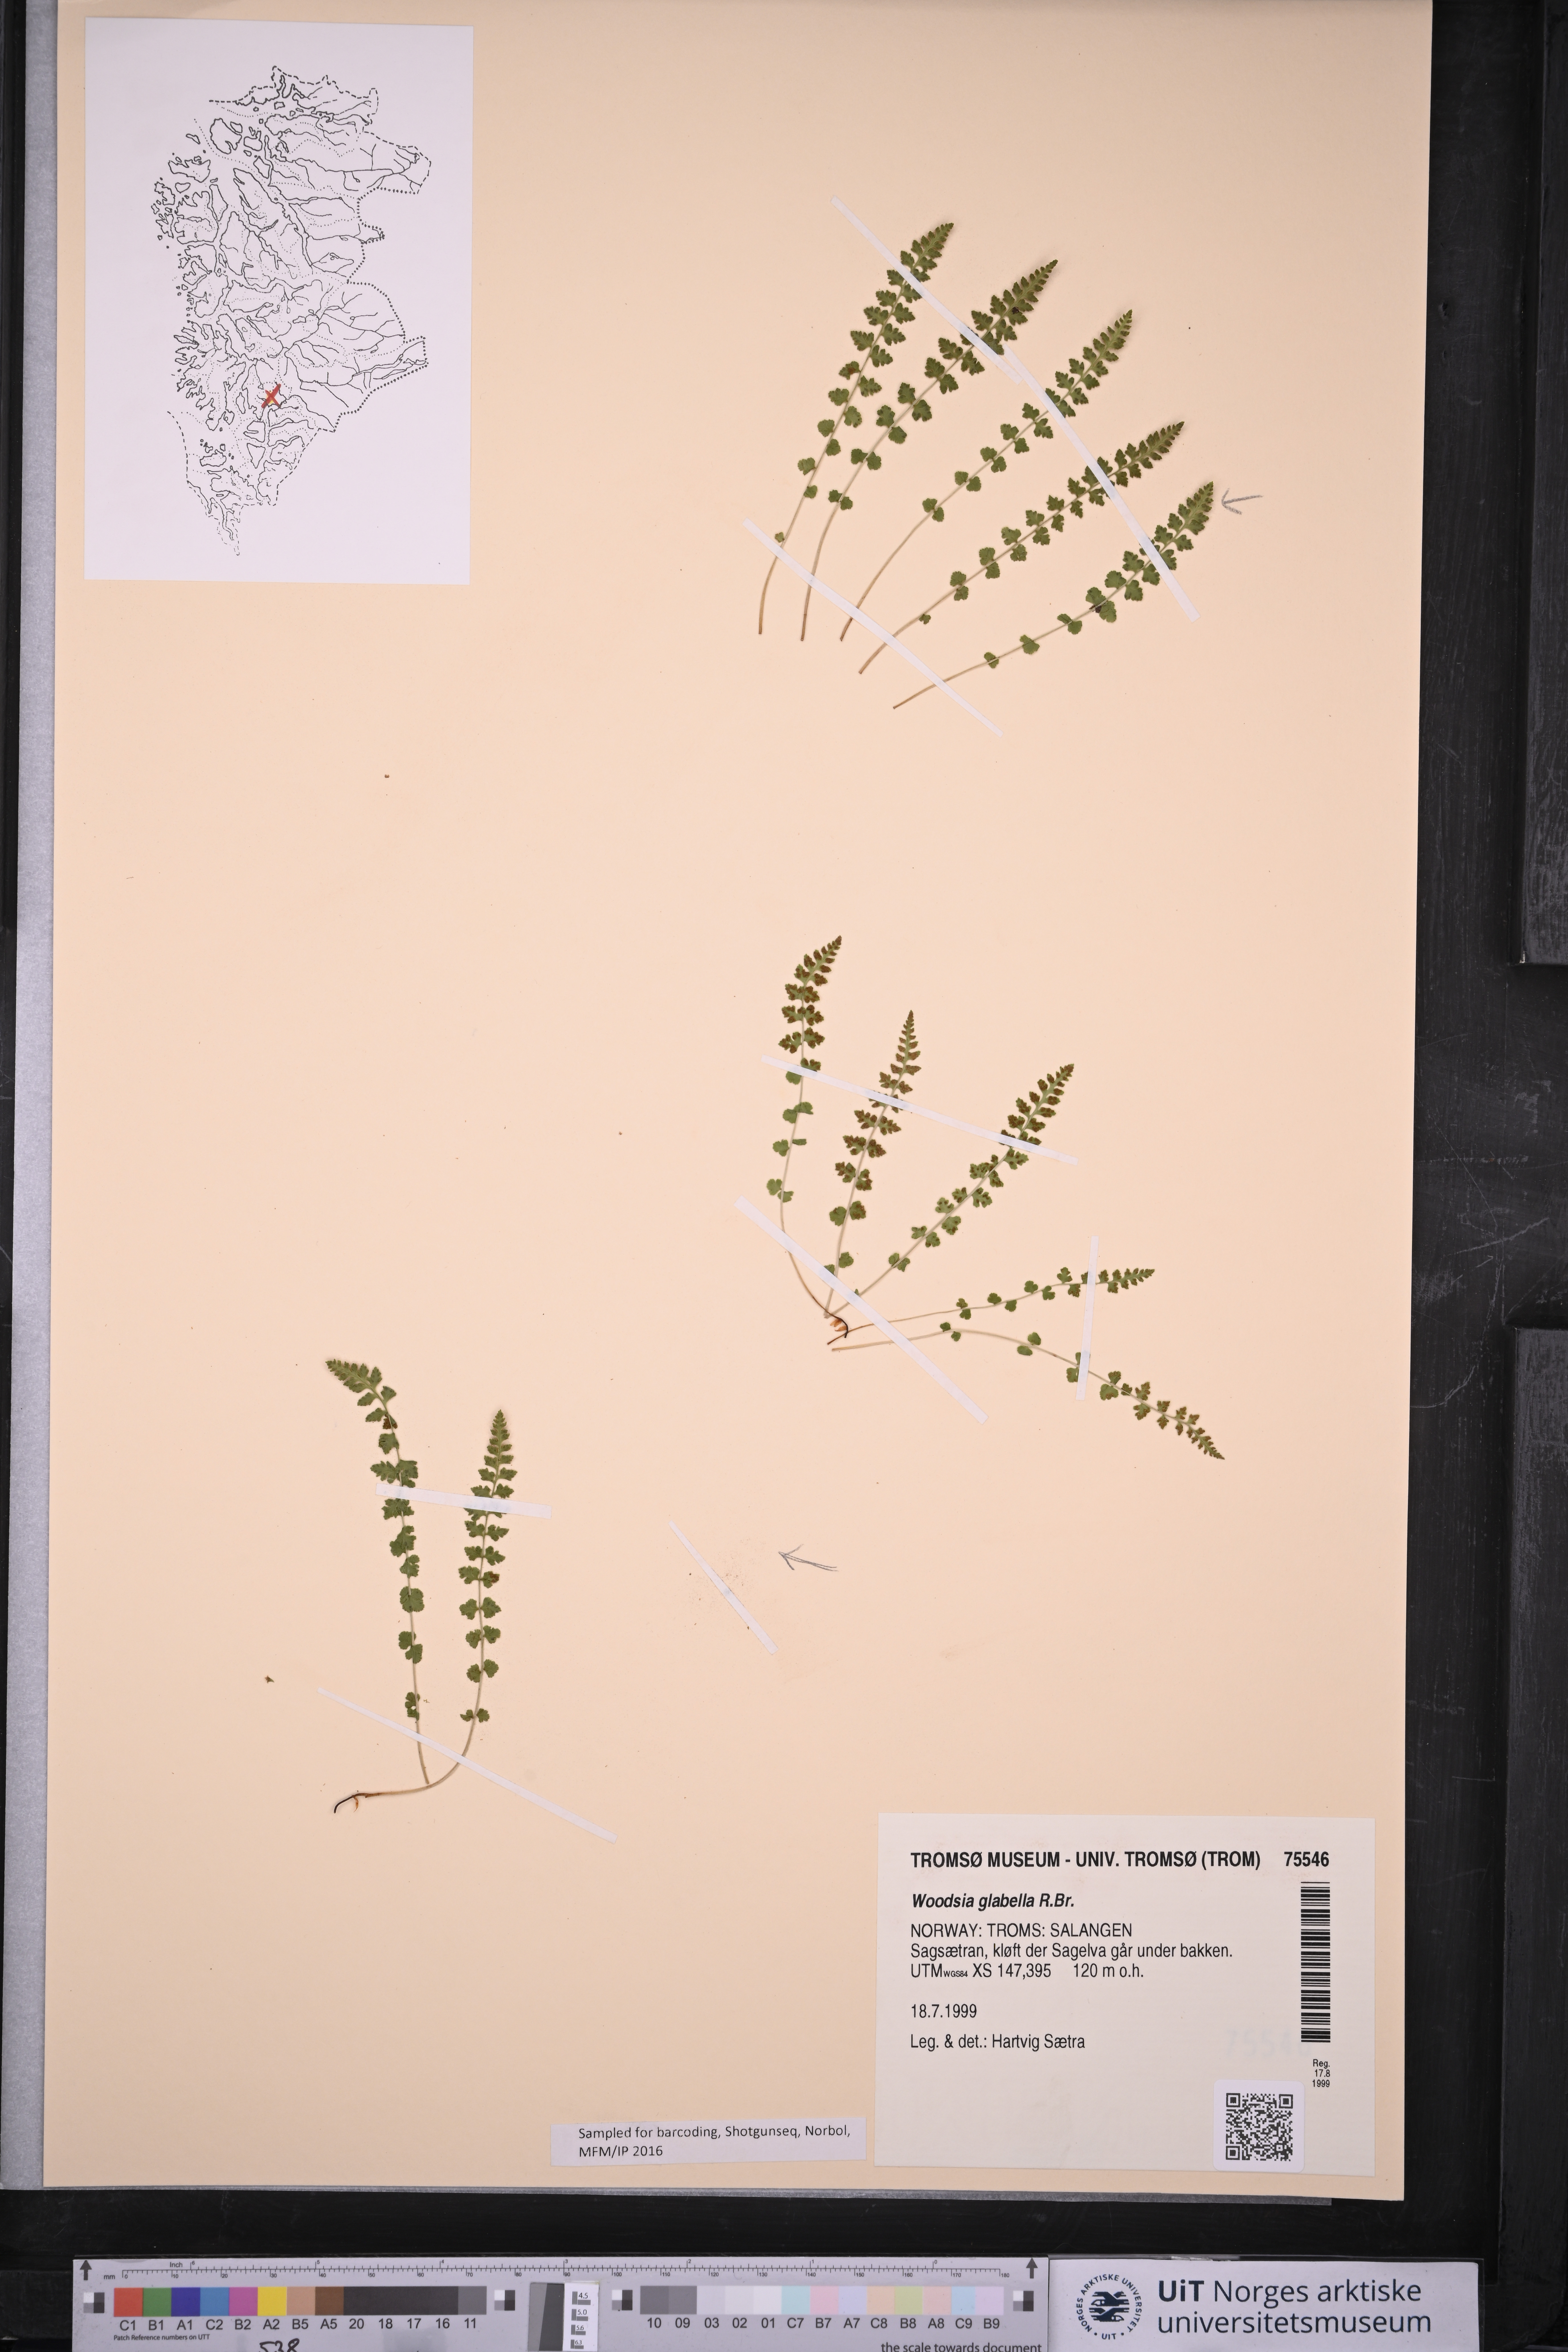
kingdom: Plantae
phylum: Tracheophyta
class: Polypodiopsida
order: Polypodiales
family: Woodsiaceae
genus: Woodsia
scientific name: Woodsia glabella
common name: Smooth woodsia
